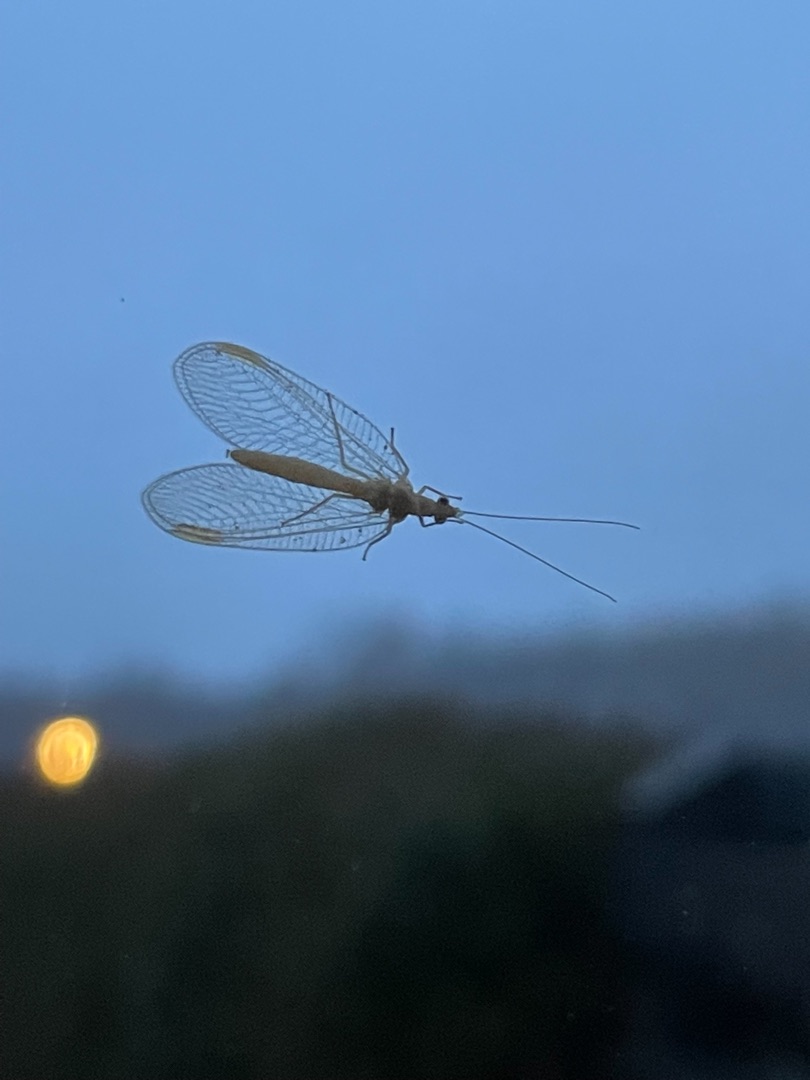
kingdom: Animalia
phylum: Arthropoda
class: Insecta
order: Neuroptera
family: Chrysopidae
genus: Chrysoperla
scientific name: Chrysoperla carnea
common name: Almindelig guldøje
